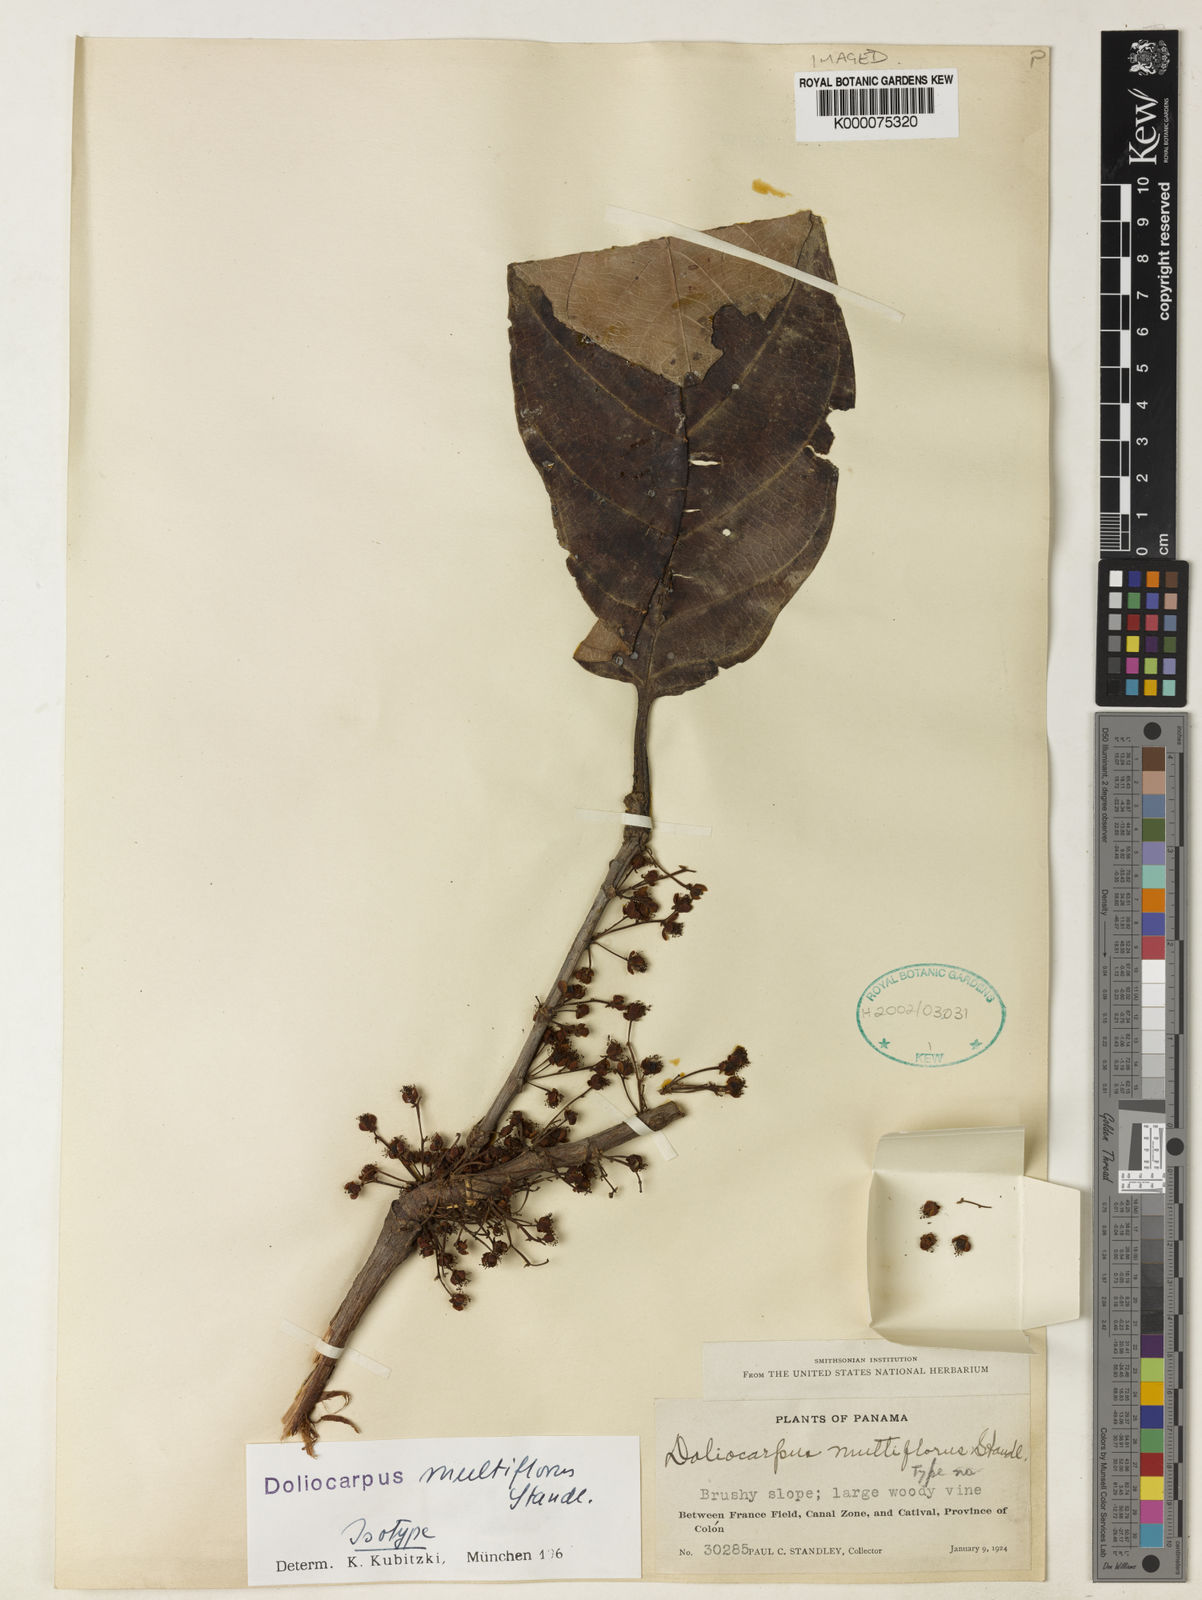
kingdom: Plantae
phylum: Tracheophyta
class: Magnoliopsida
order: Dilleniales
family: Dilleniaceae
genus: Doliocarpus
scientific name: Doliocarpus multiflorus
